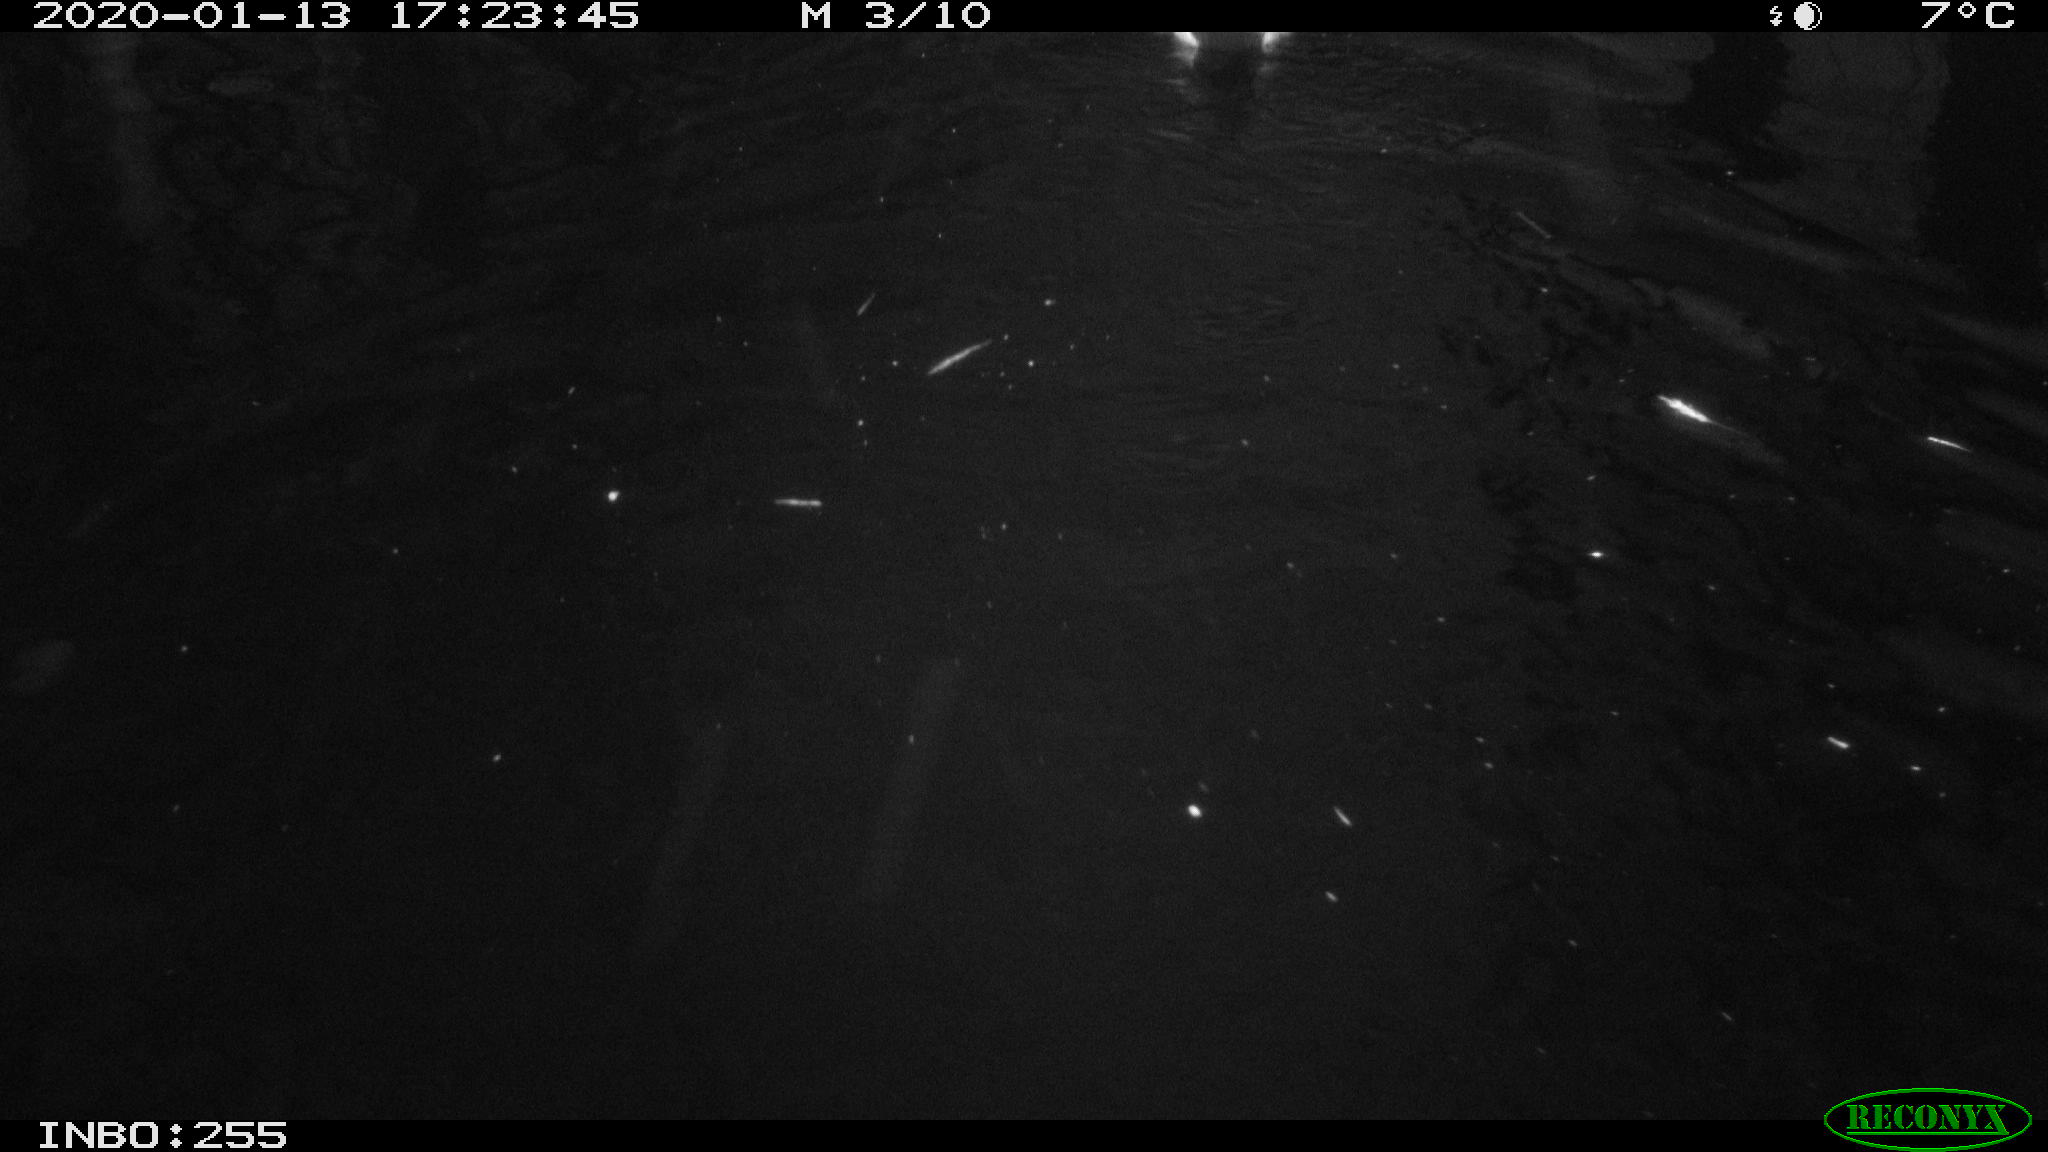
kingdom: Animalia
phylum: Chordata
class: Aves
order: Anseriformes
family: Anatidae
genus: Anas
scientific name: Anas platyrhynchos
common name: Mallard
